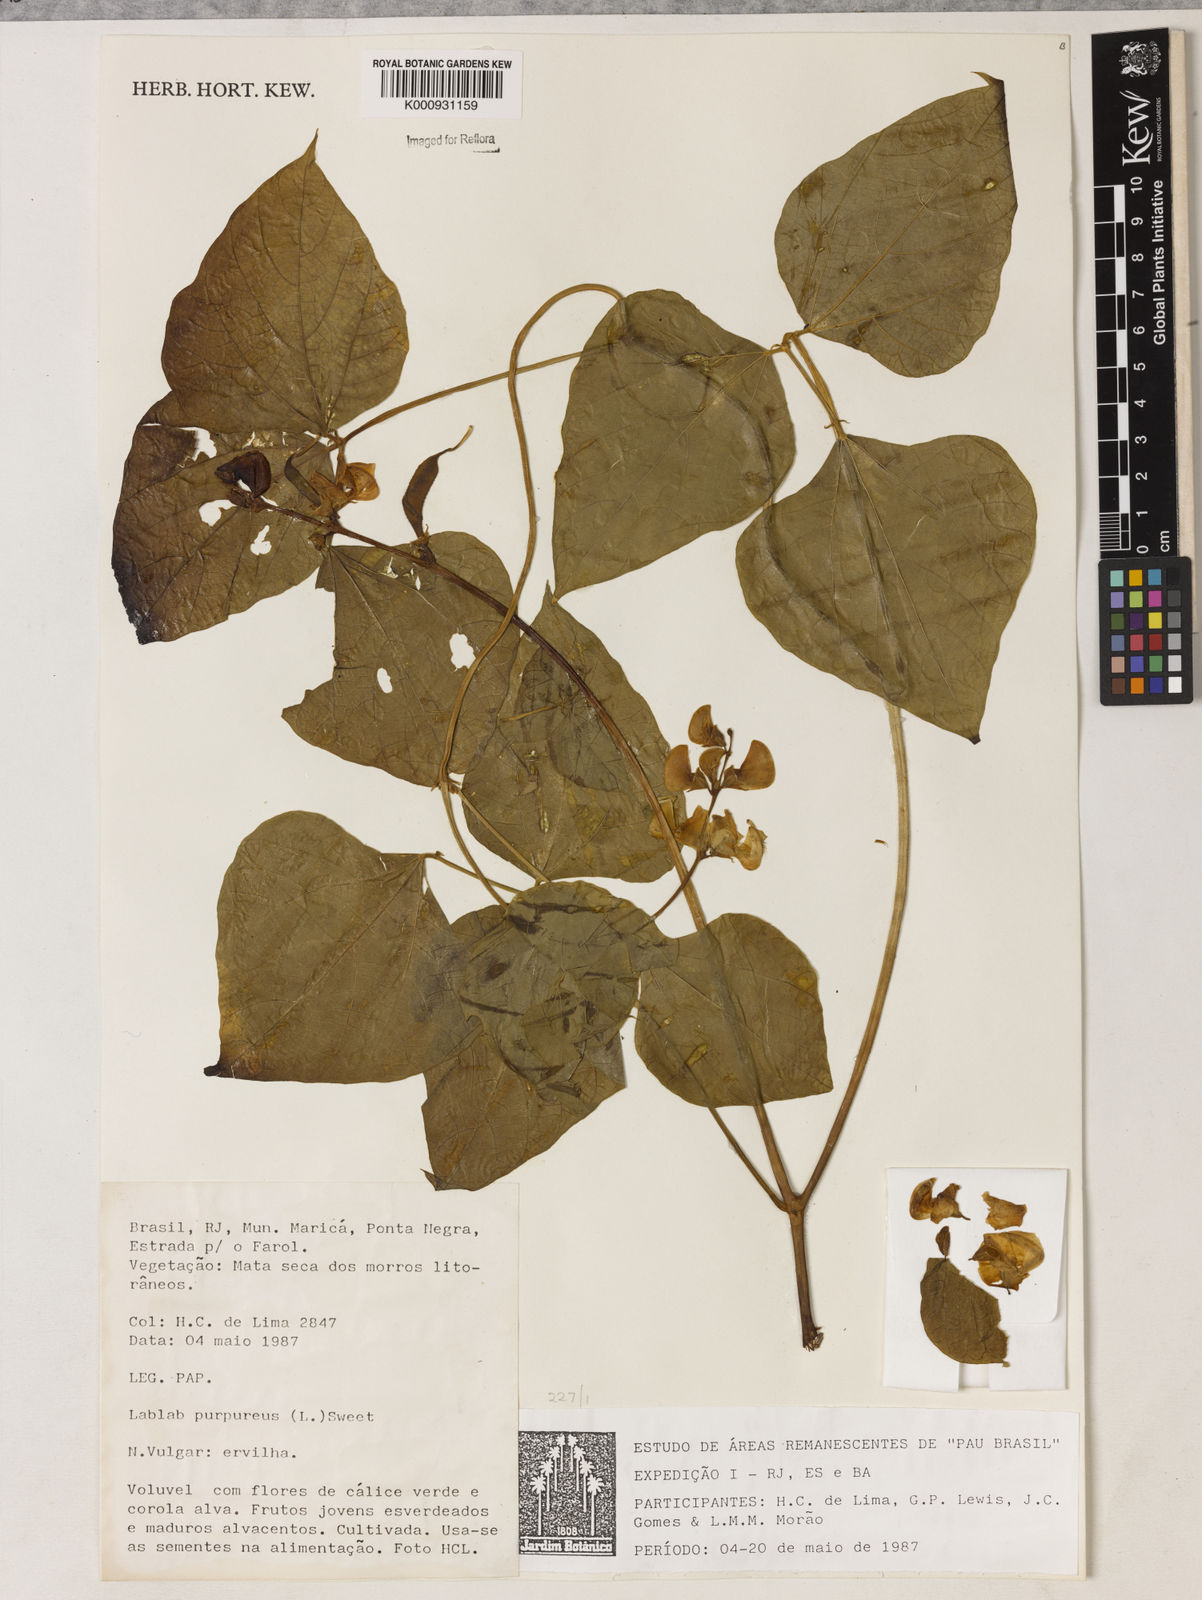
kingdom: Plantae
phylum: Tracheophyta
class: Magnoliopsida
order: Fabales
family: Fabaceae
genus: Lablab
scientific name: Lablab purpureus
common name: Lablab-bean
